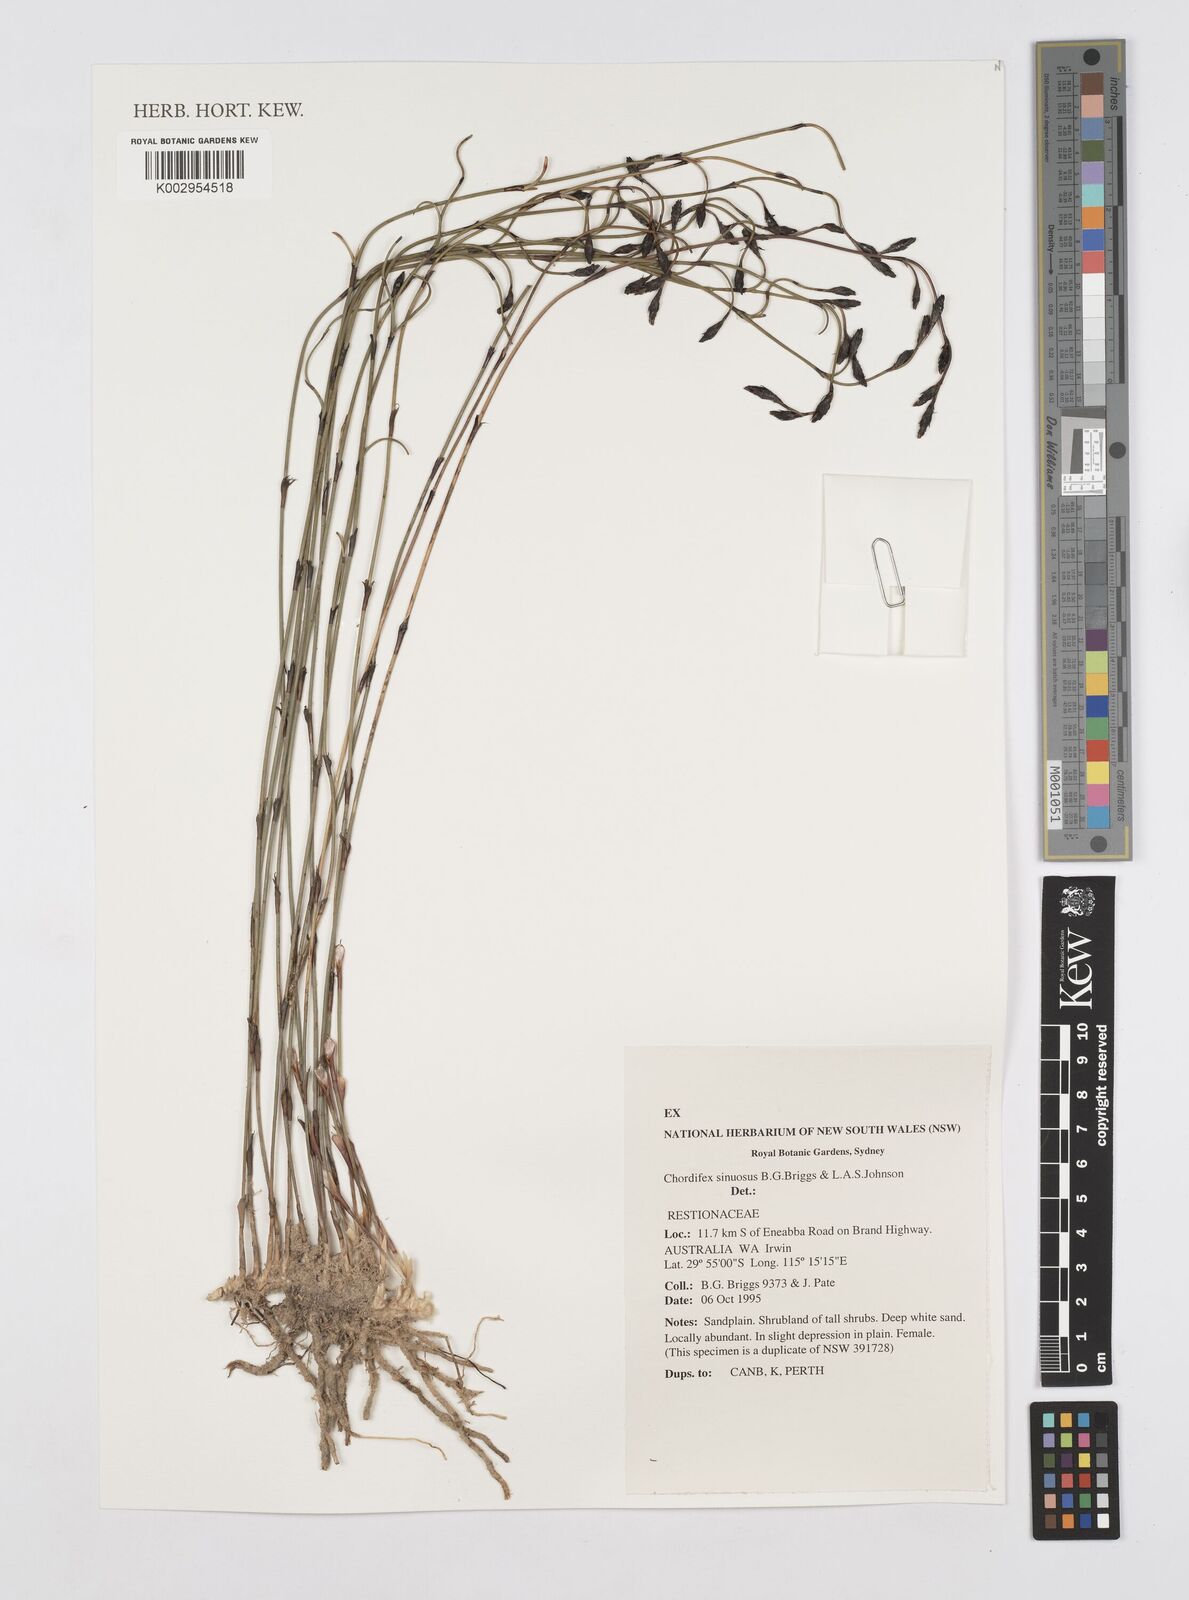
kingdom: Plantae
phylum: Tracheophyta
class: Liliopsida
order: Poales
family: Restionaceae
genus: Chordifex
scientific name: Chordifex sinuosus
